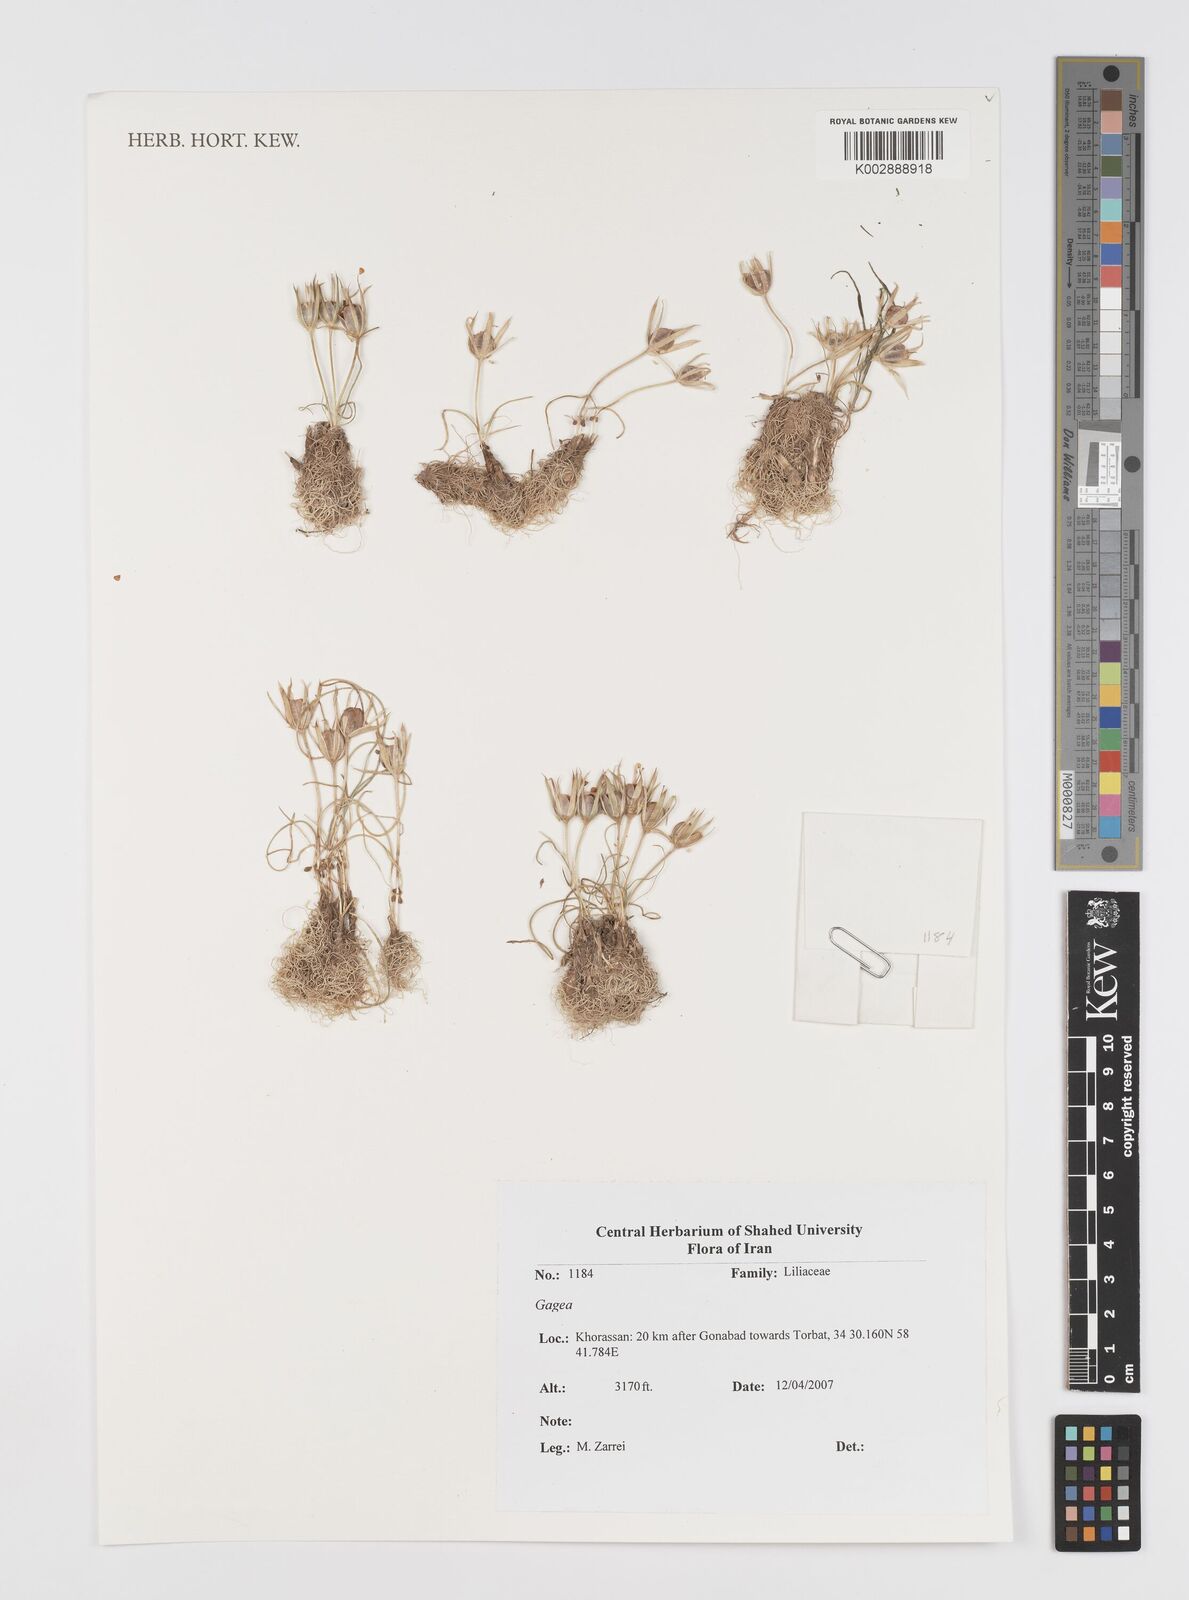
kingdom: Plantae
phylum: Tracheophyta
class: Liliopsida
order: Liliales
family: Liliaceae
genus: Gagea
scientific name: Gagea
